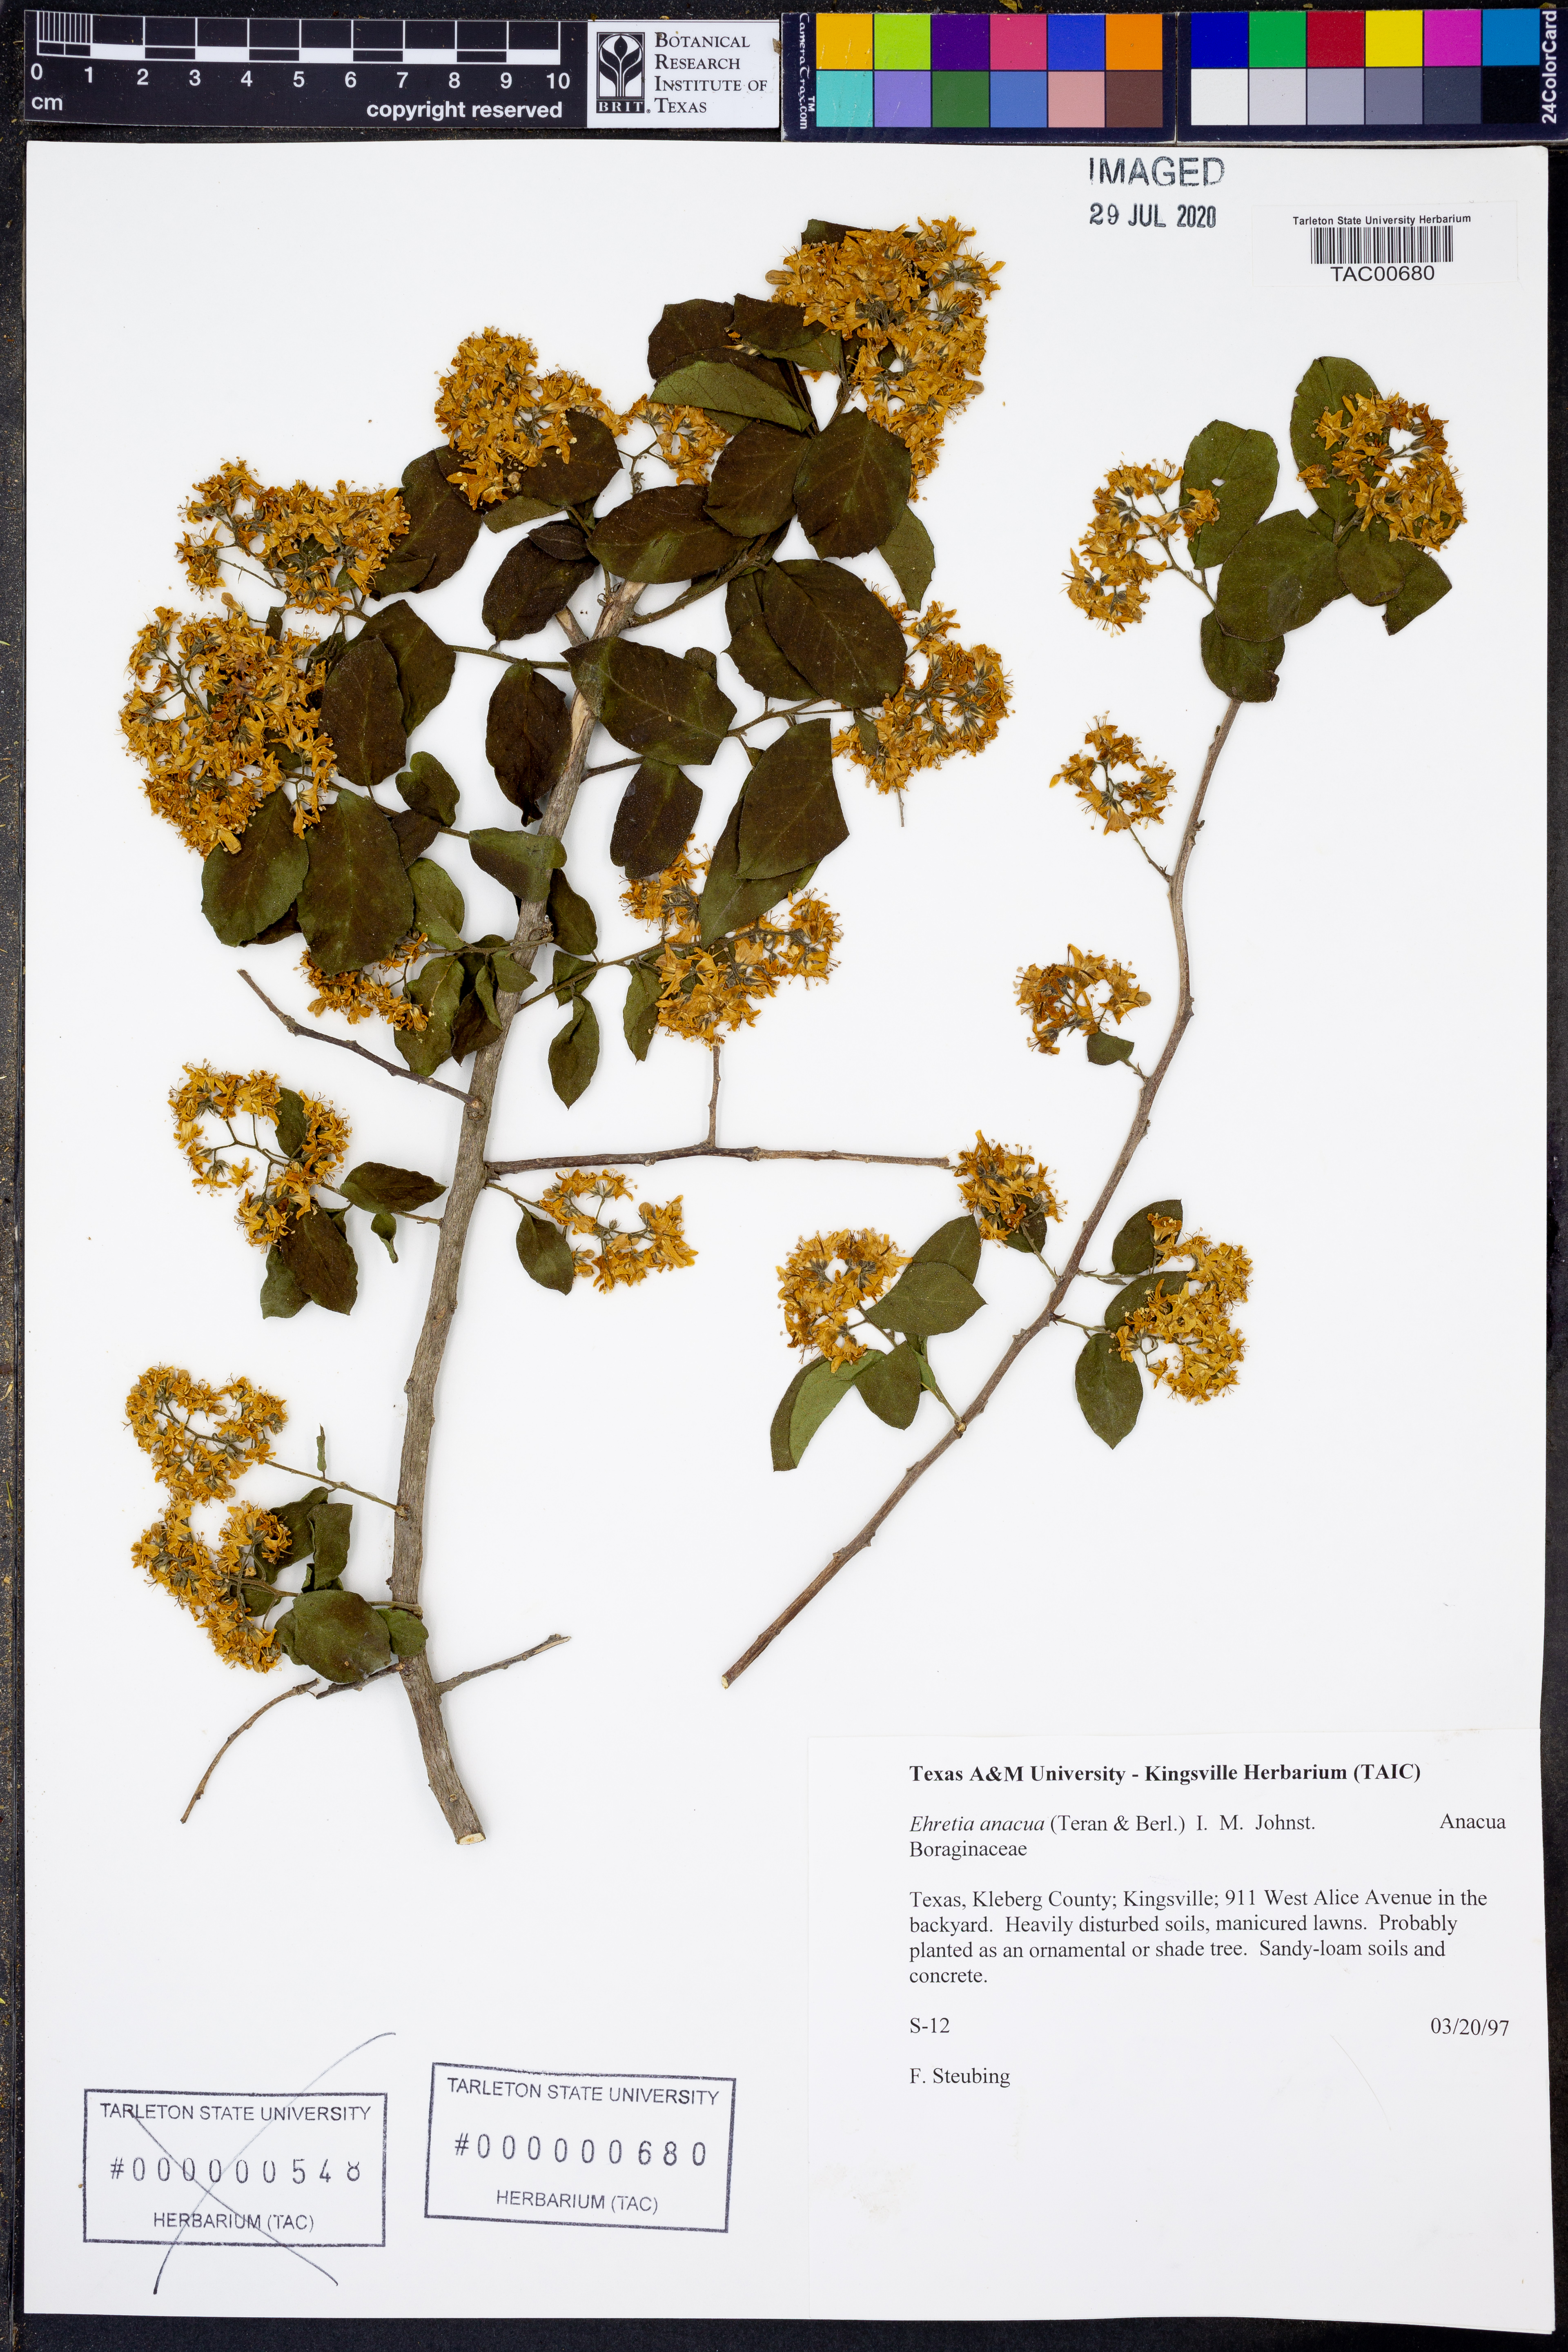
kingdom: Plantae
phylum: Tracheophyta
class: Magnoliopsida
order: Boraginales
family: Ehretiaceae
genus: Ehretia
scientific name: Ehretia anacua
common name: Sugarberry
